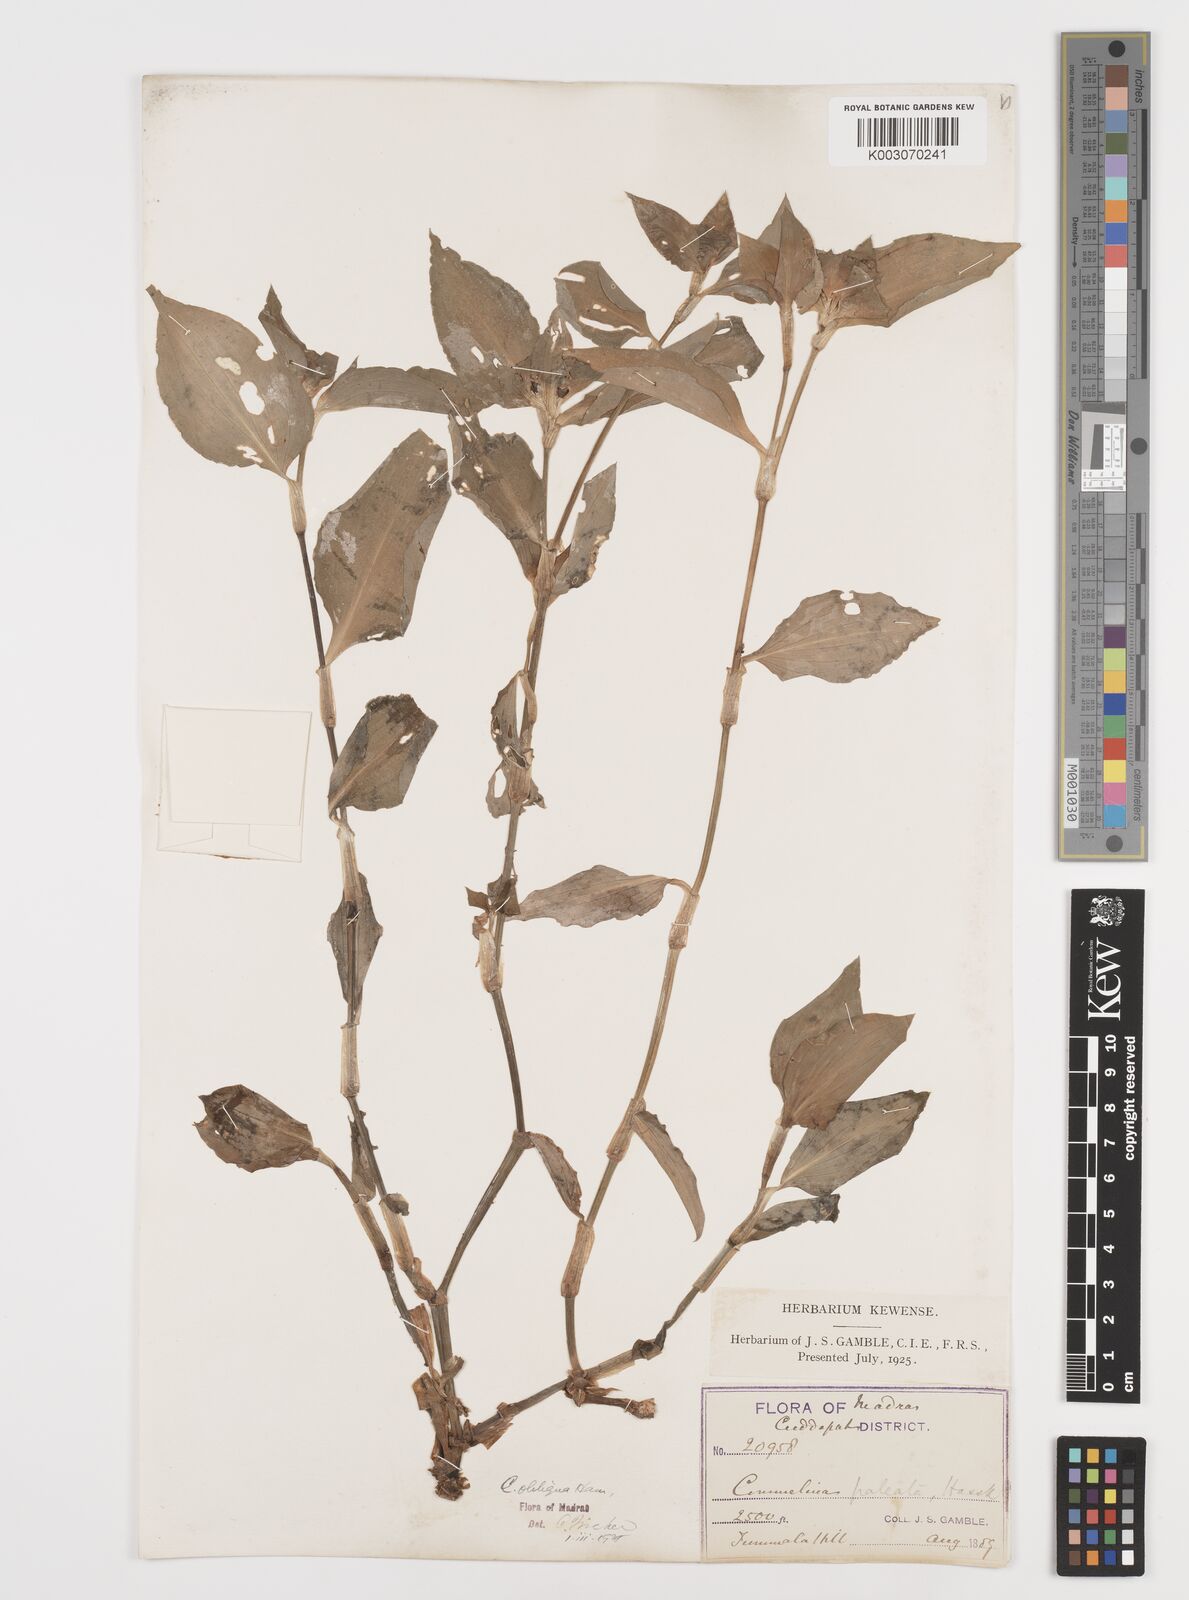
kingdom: Plantae
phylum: Tracheophyta
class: Liliopsida
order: Commelinales
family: Commelinaceae
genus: Commelina
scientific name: Commelina paludosa
